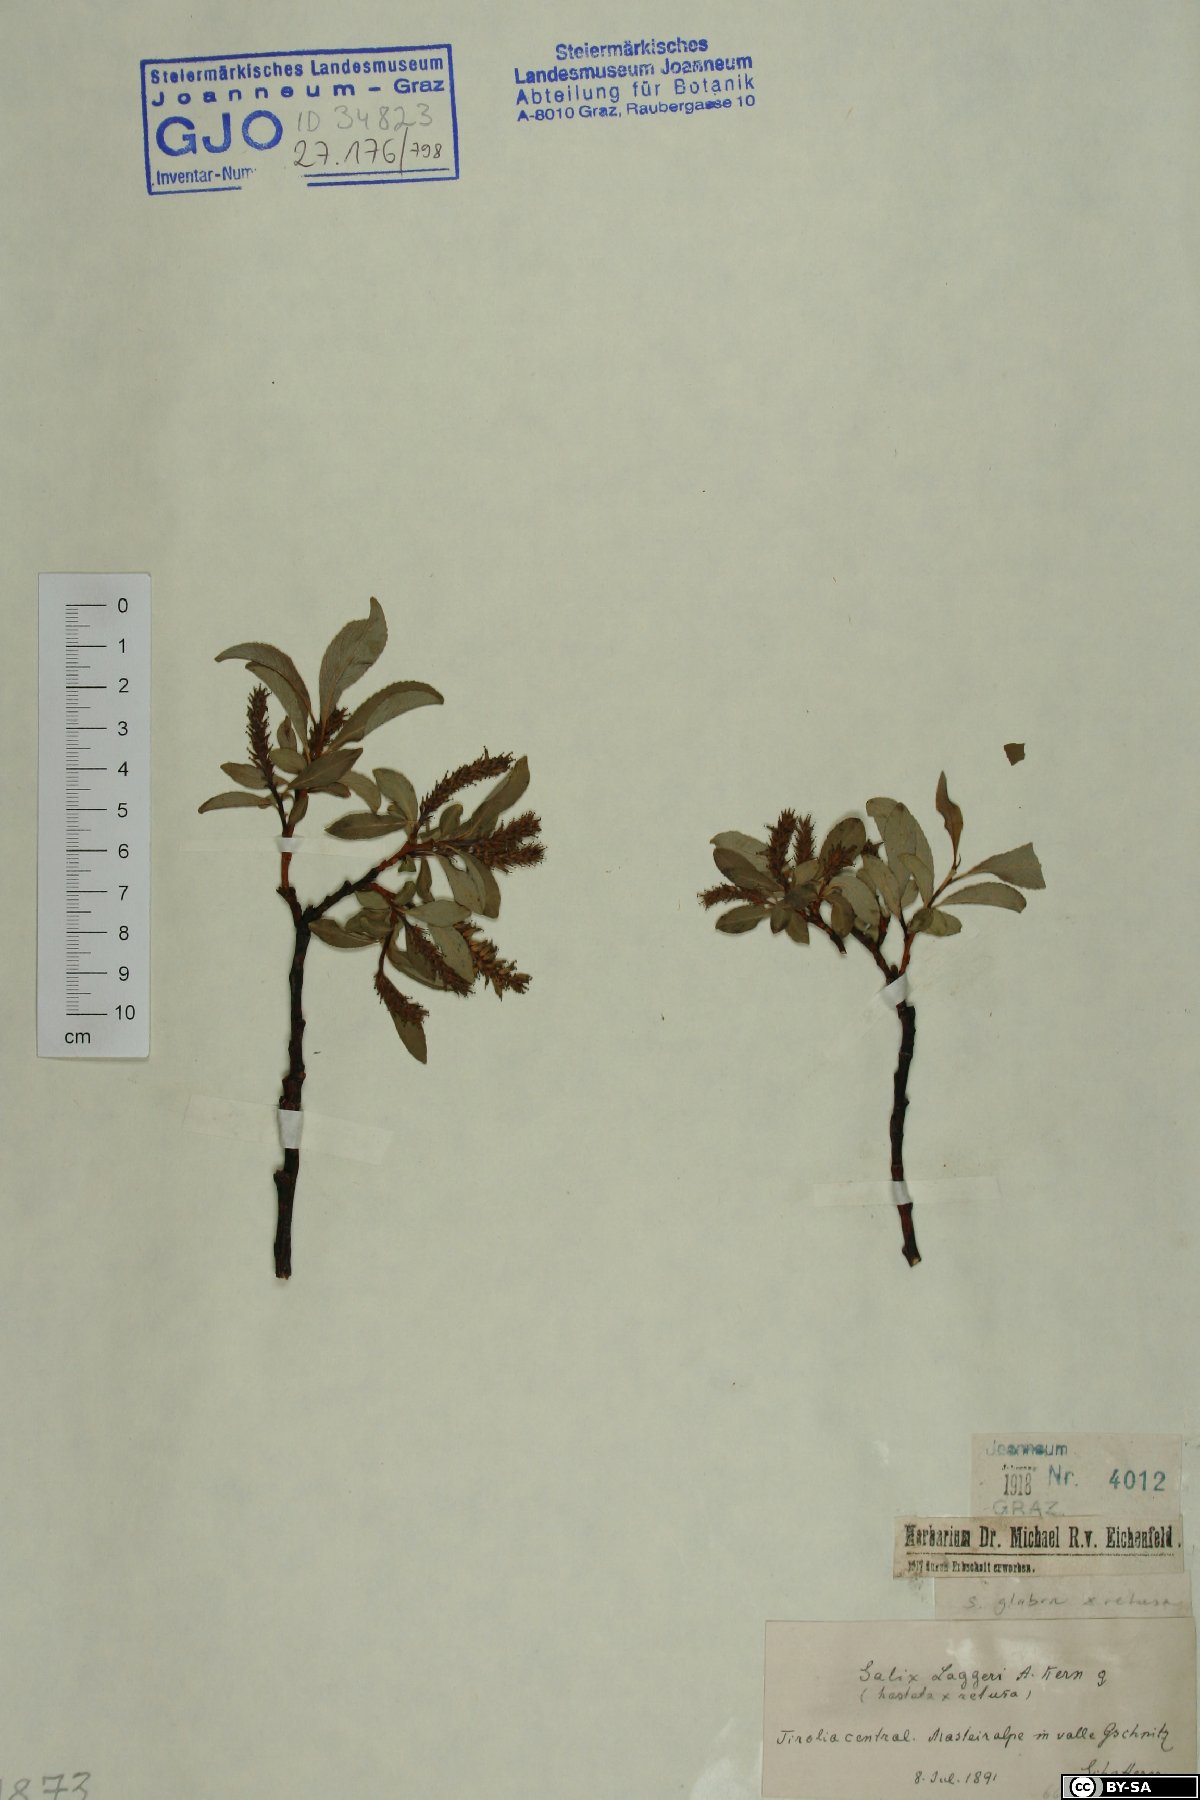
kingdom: Plantae
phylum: Tracheophyta
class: Magnoliopsida
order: Malpighiales
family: Salicaceae
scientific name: Salicaceae
